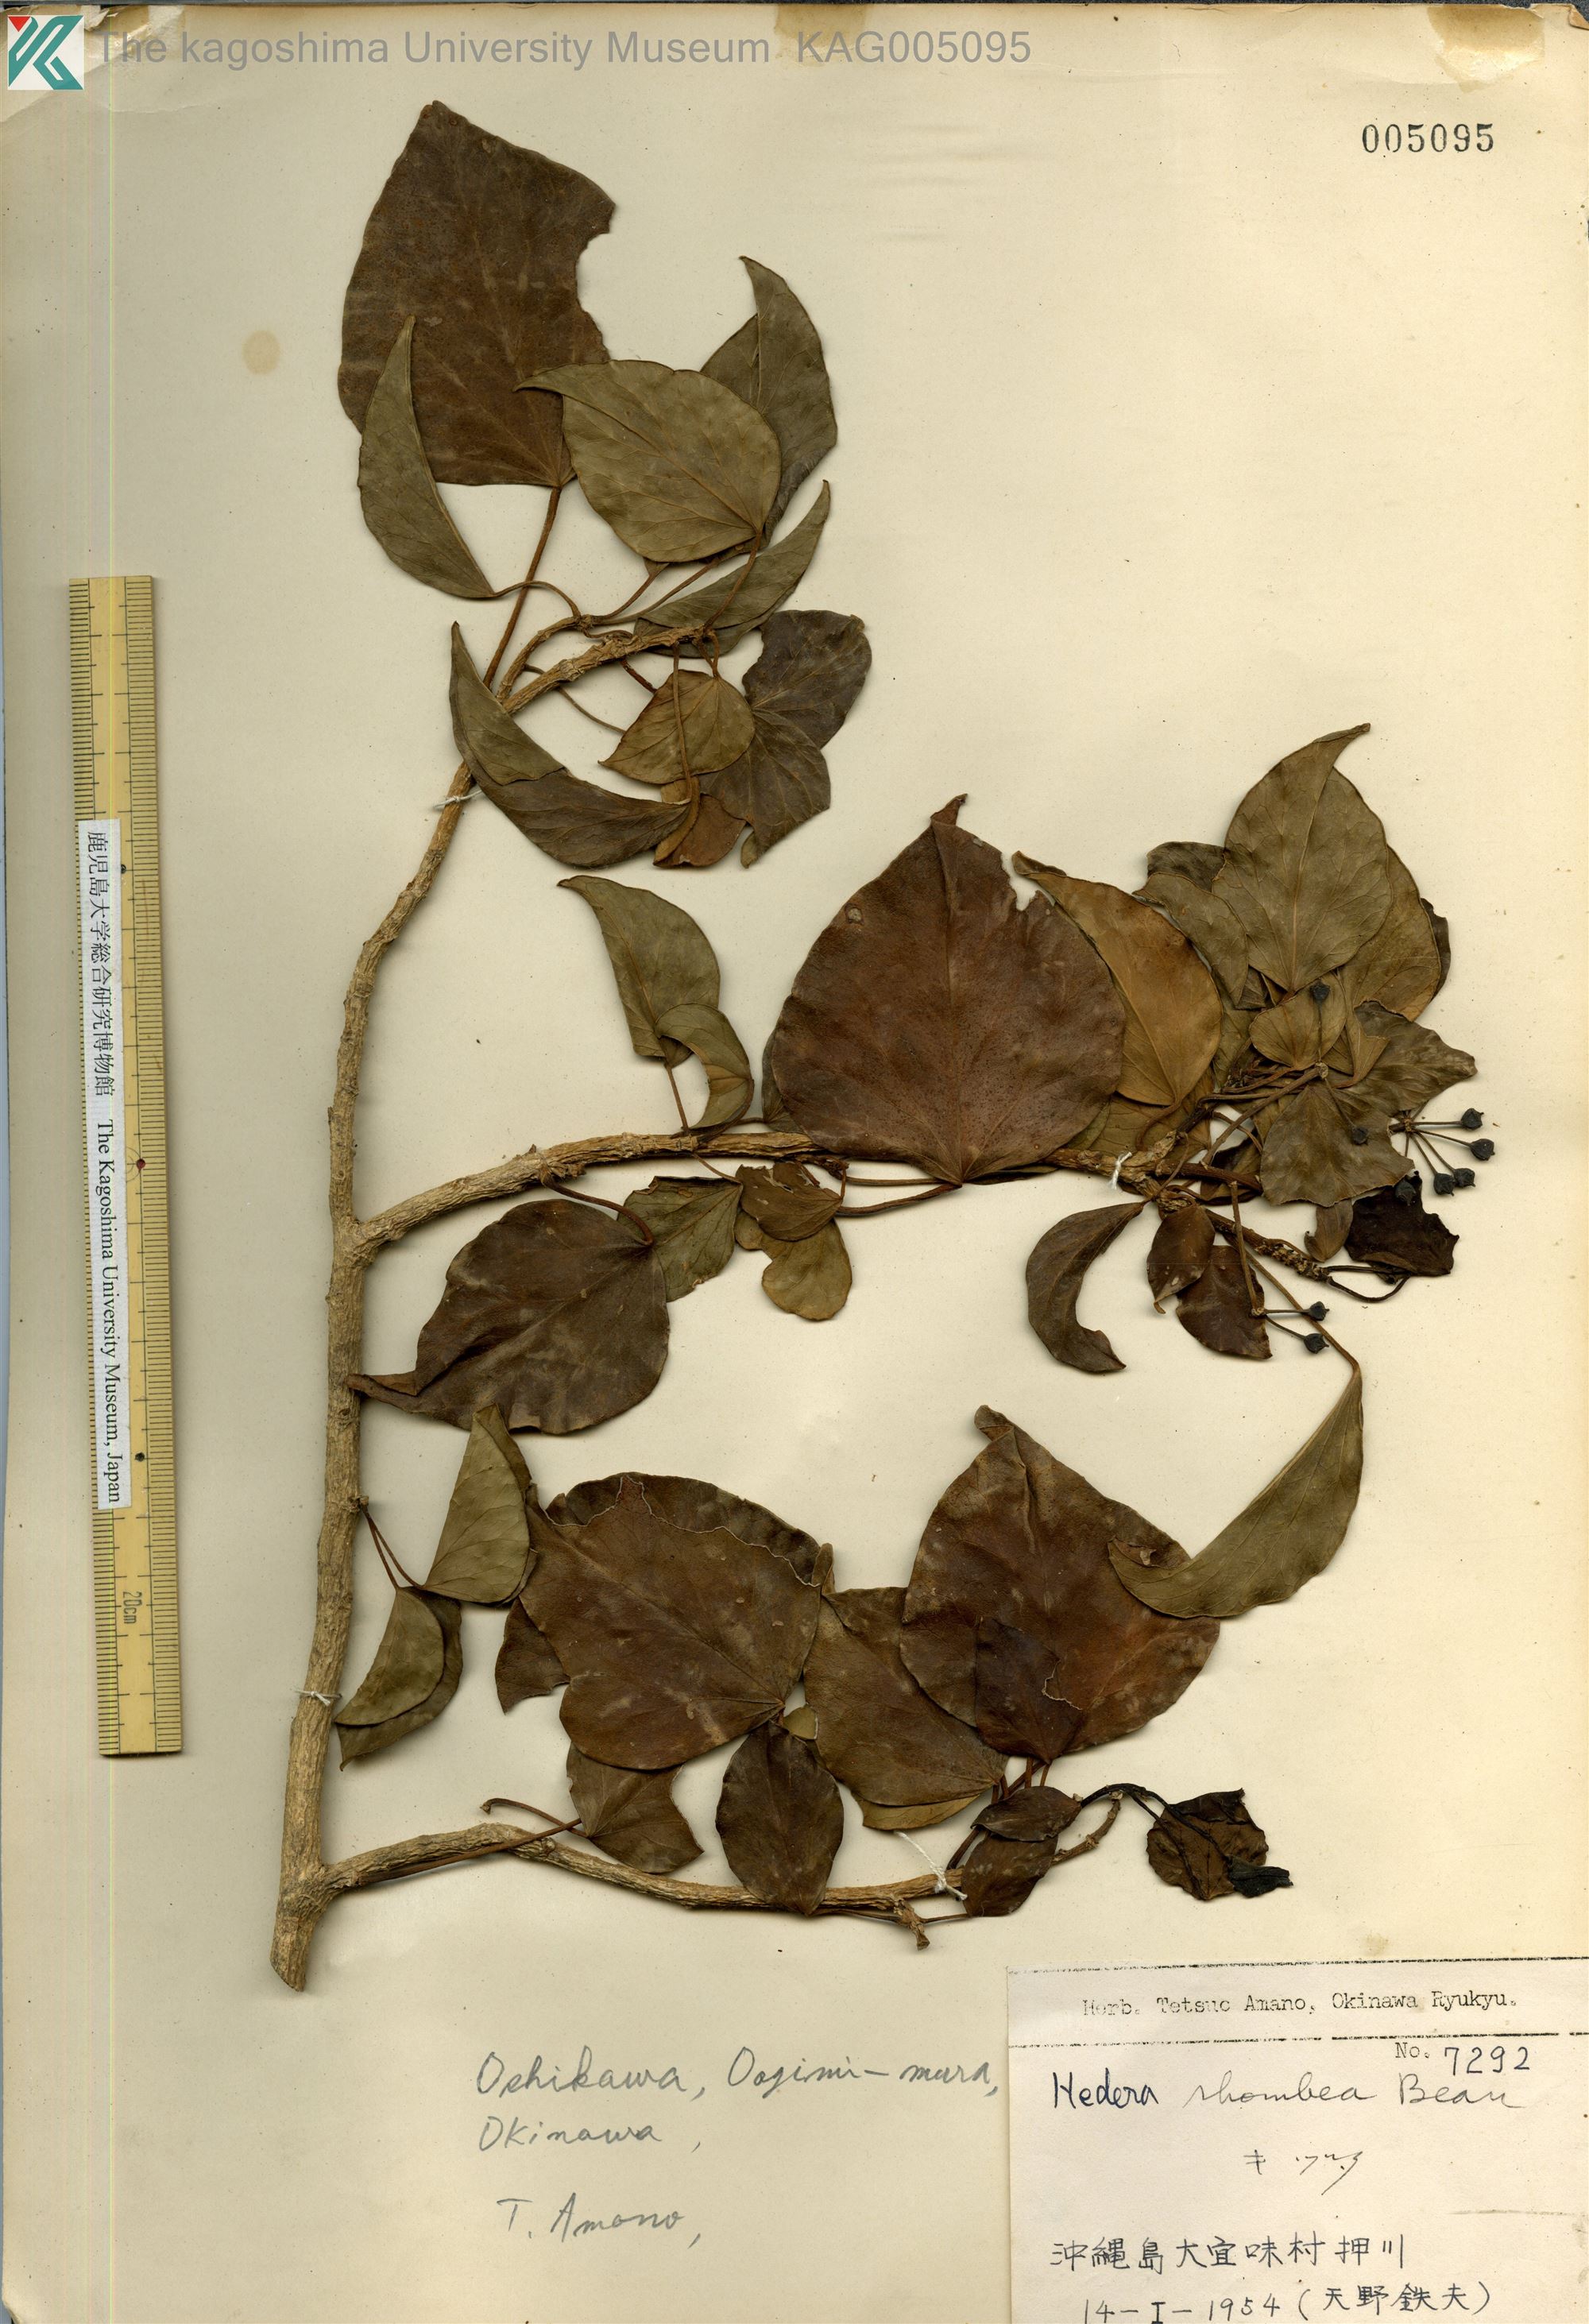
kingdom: Plantae
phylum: Tracheophyta
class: Magnoliopsida
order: Apiales
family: Araliaceae
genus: Hedera
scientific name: Hedera rhombea
